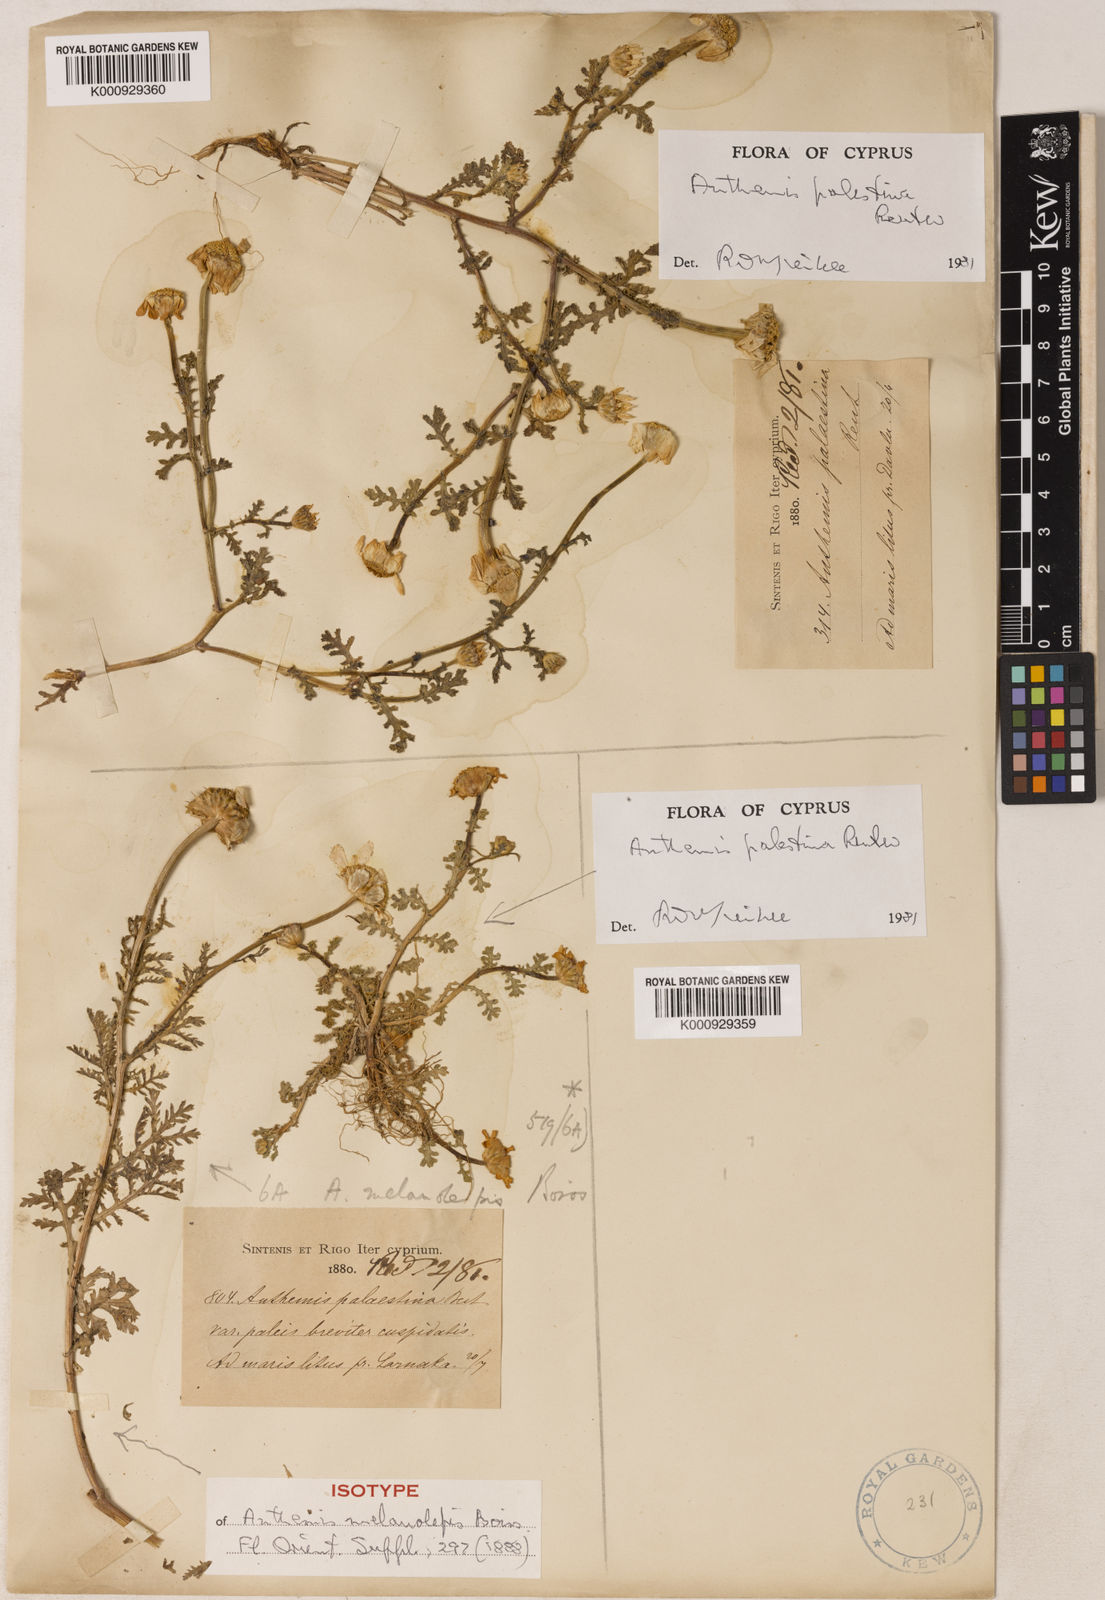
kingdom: Plantae
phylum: Tracheophyta
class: Magnoliopsida
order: Asterales
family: Asteraceae
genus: Cota
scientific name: Cota palaestina
